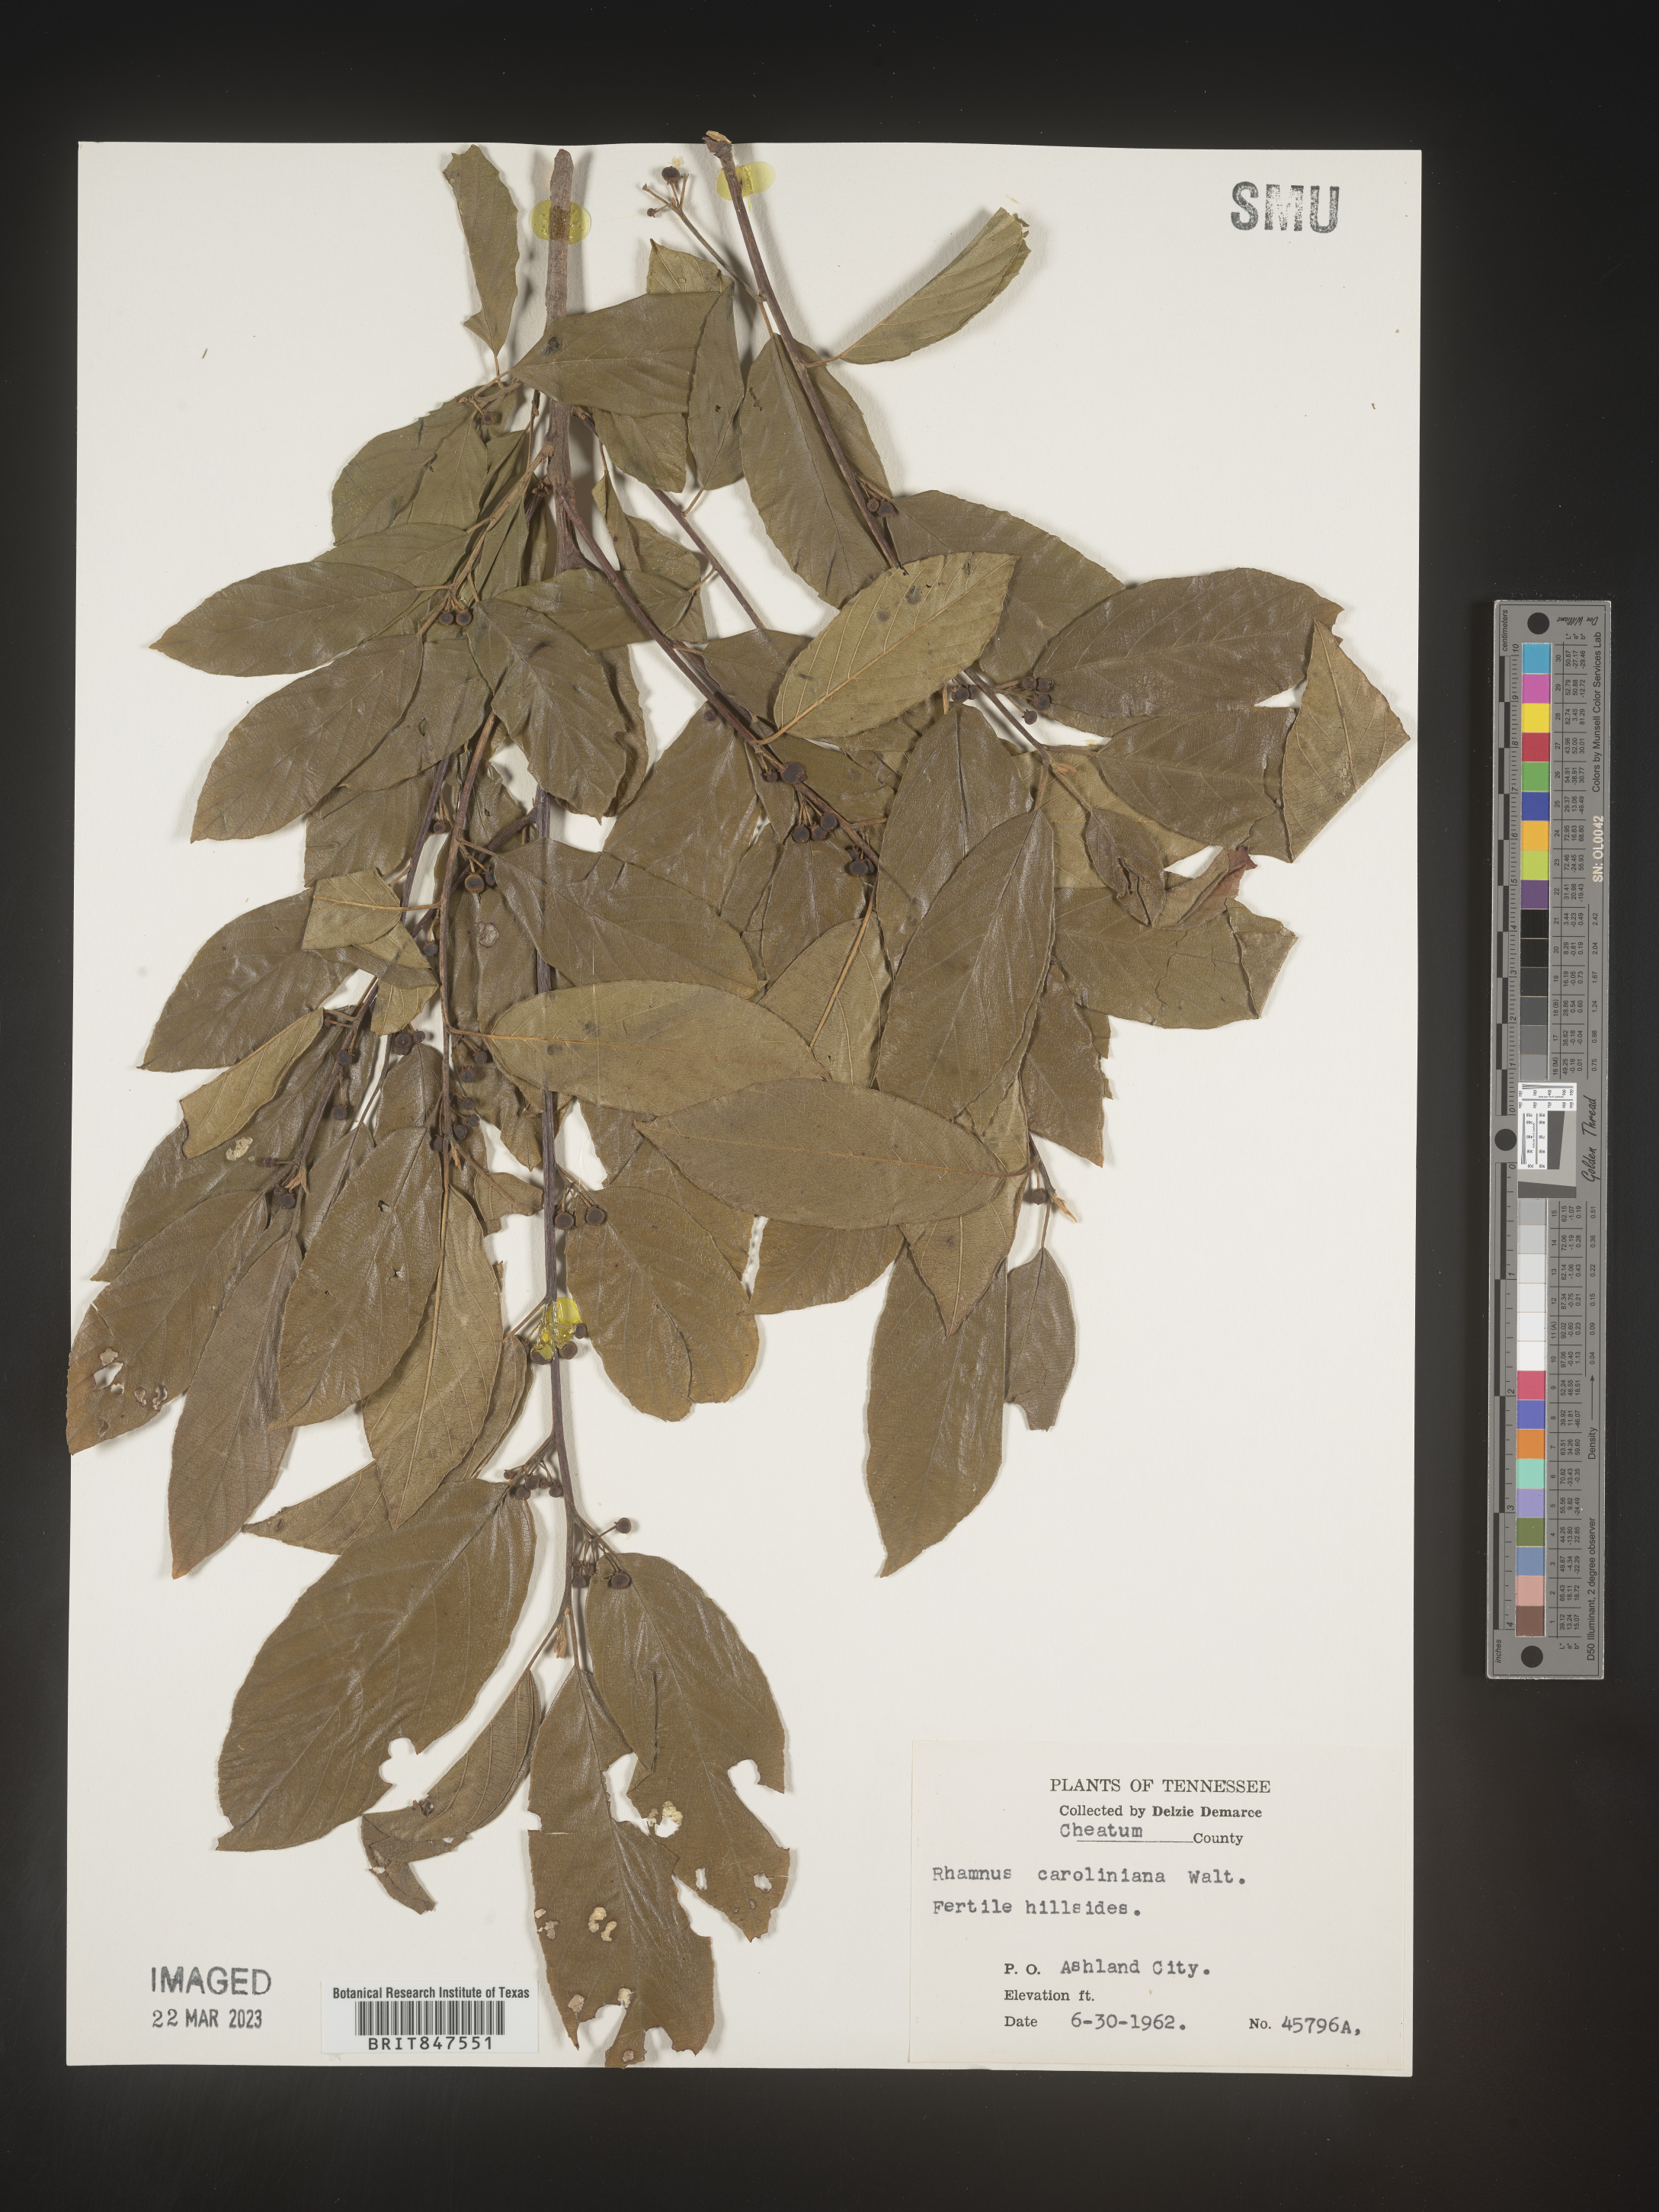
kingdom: Plantae
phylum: Tracheophyta
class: Magnoliopsida
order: Rosales
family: Rhamnaceae
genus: Frangula
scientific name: Frangula caroliniana
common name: Carolina buckthorn
